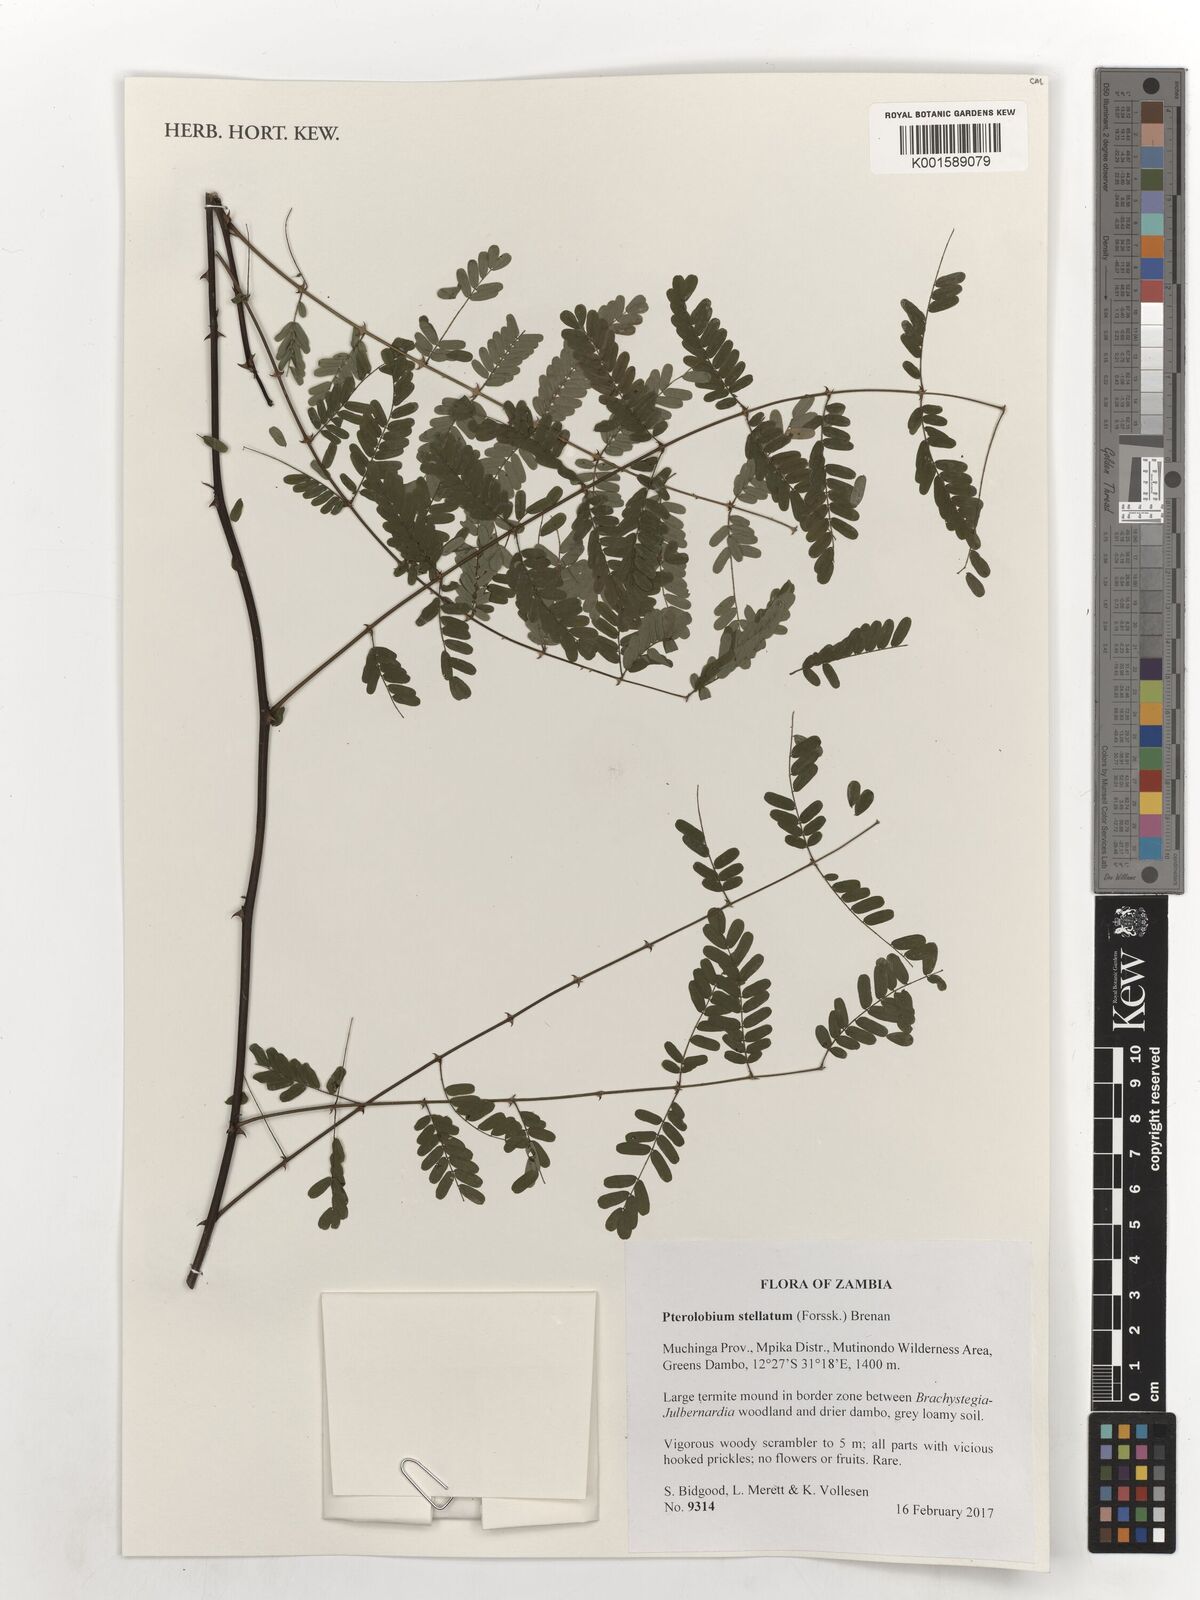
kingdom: Plantae
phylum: Tracheophyta
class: Magnoliopsida
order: Fabales
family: Fabaceae
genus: Pterolobium
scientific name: Pterolobium stellatum
